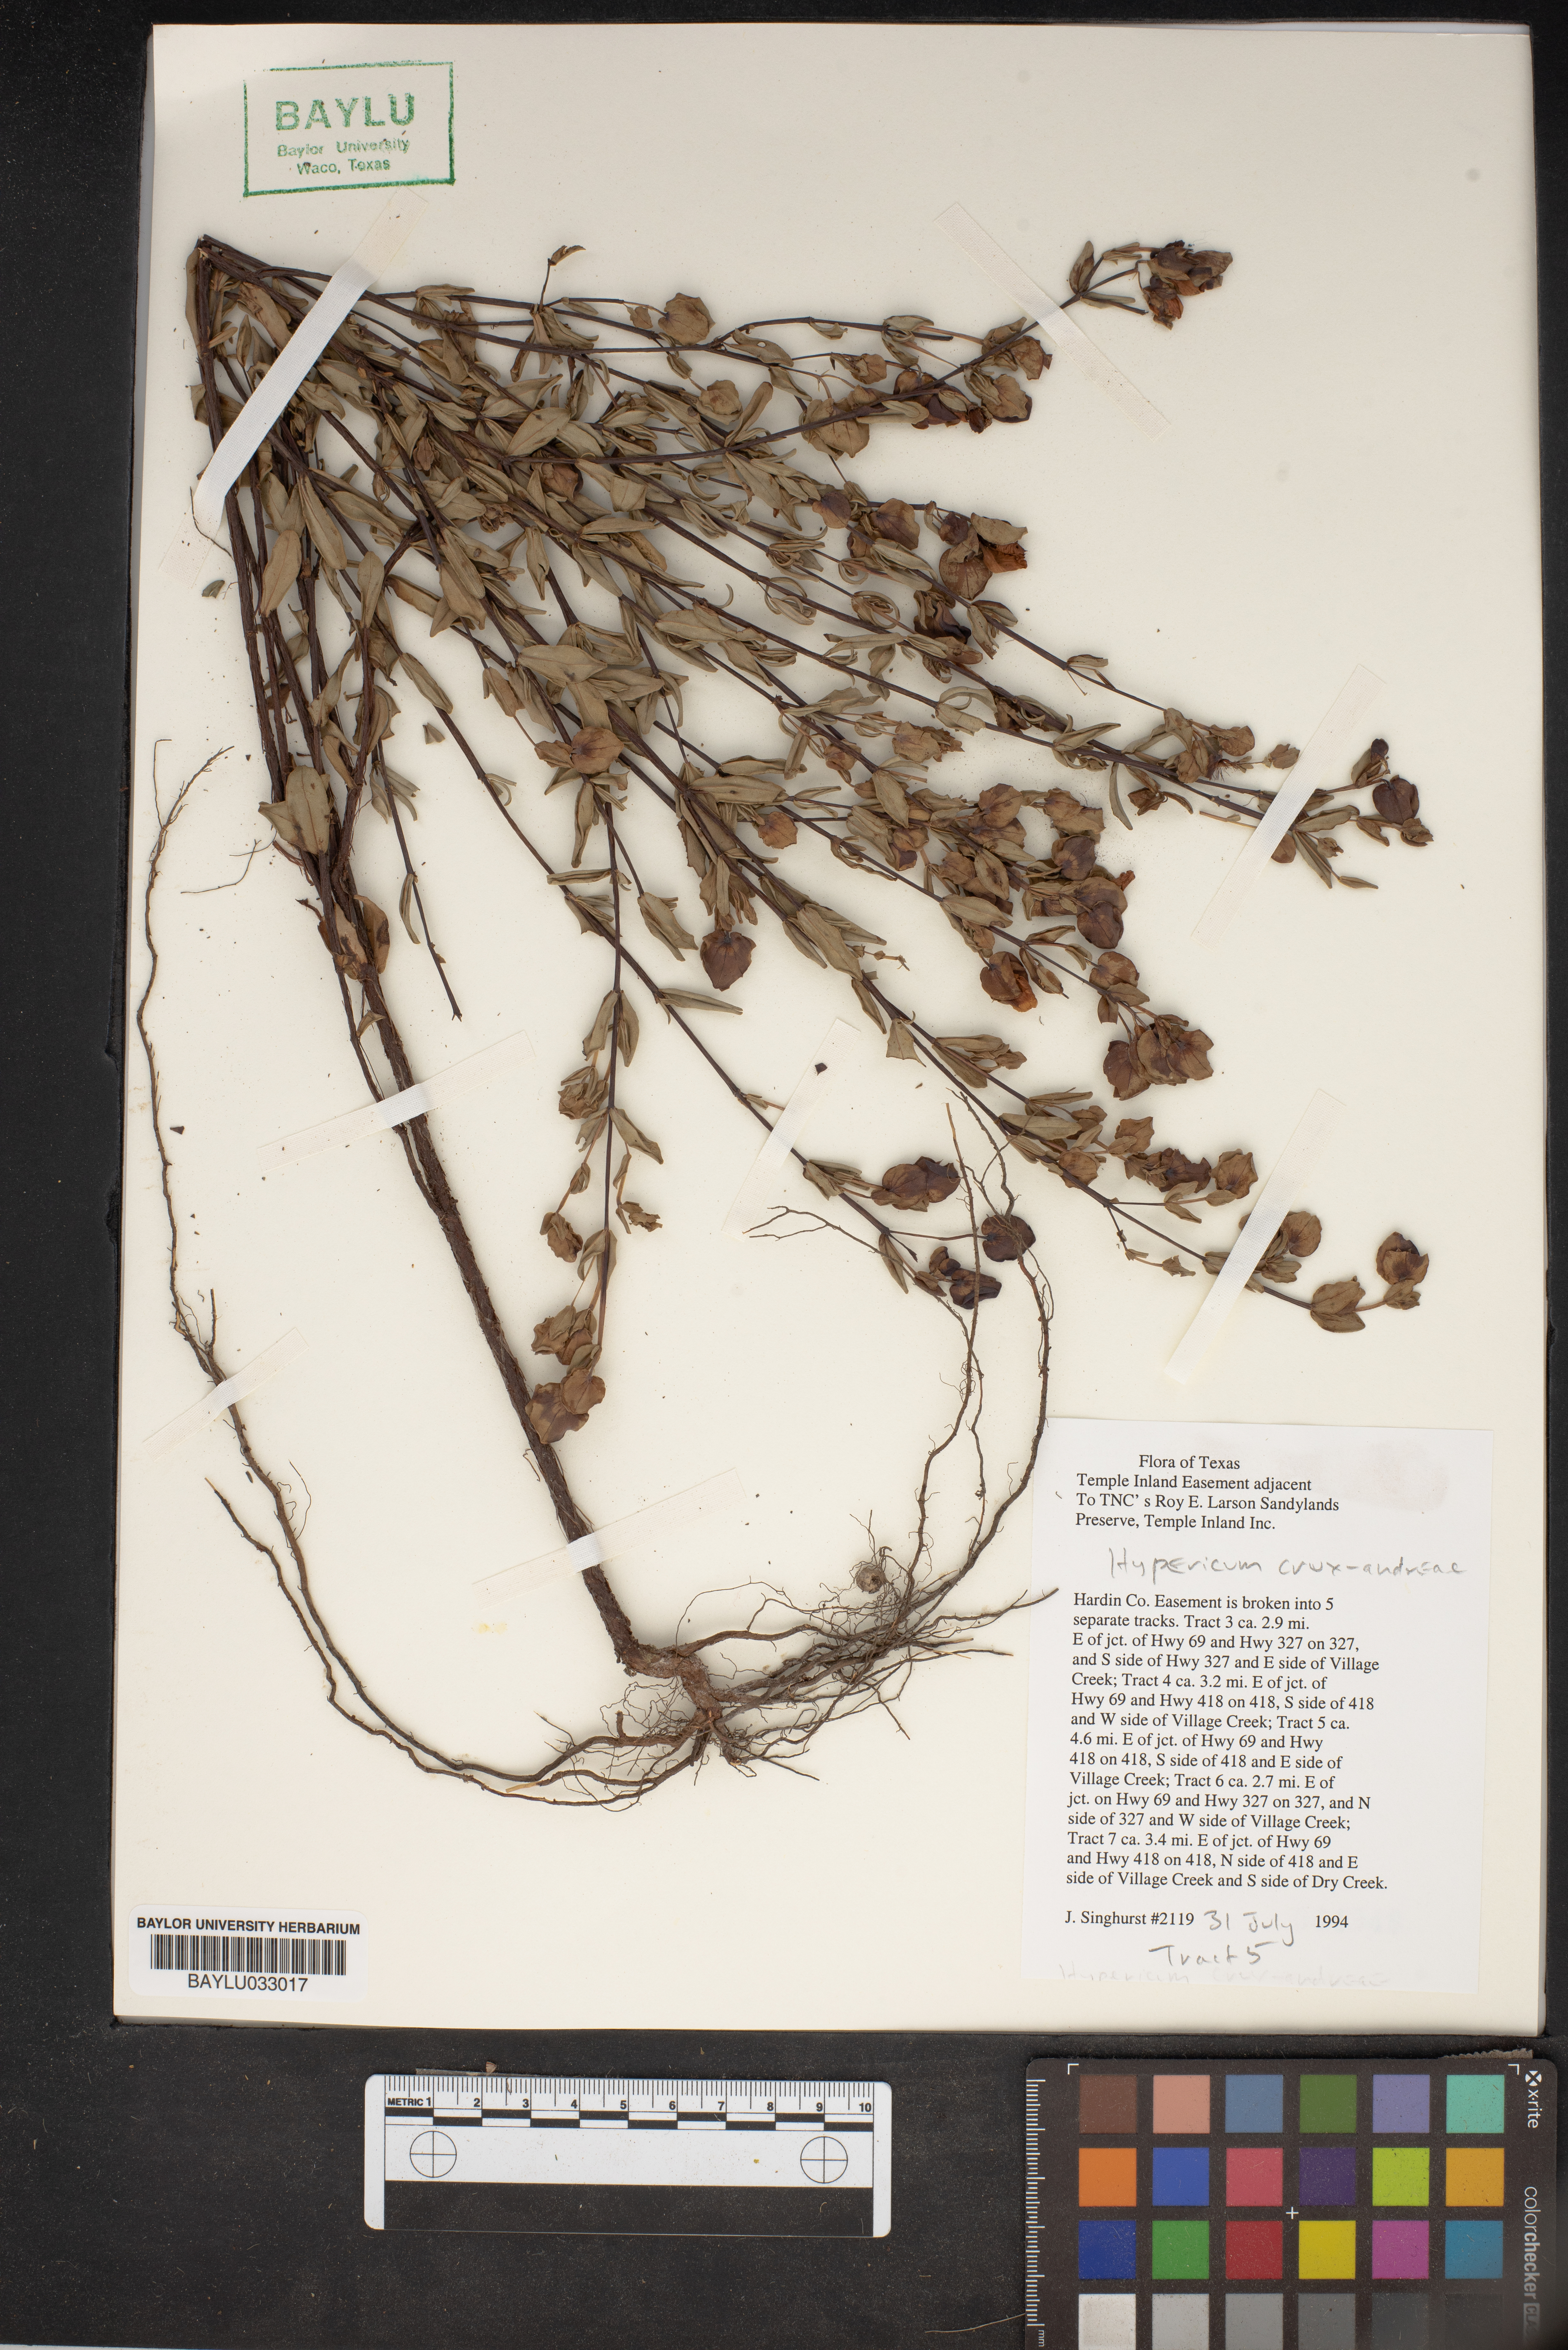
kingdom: Plantae
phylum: Tracheophyta
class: Magnoliopsida
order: Malpighiales
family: Hypericaceae
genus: Hypericum
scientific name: Hypericum crux-andreae
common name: St.-peter's-wort
